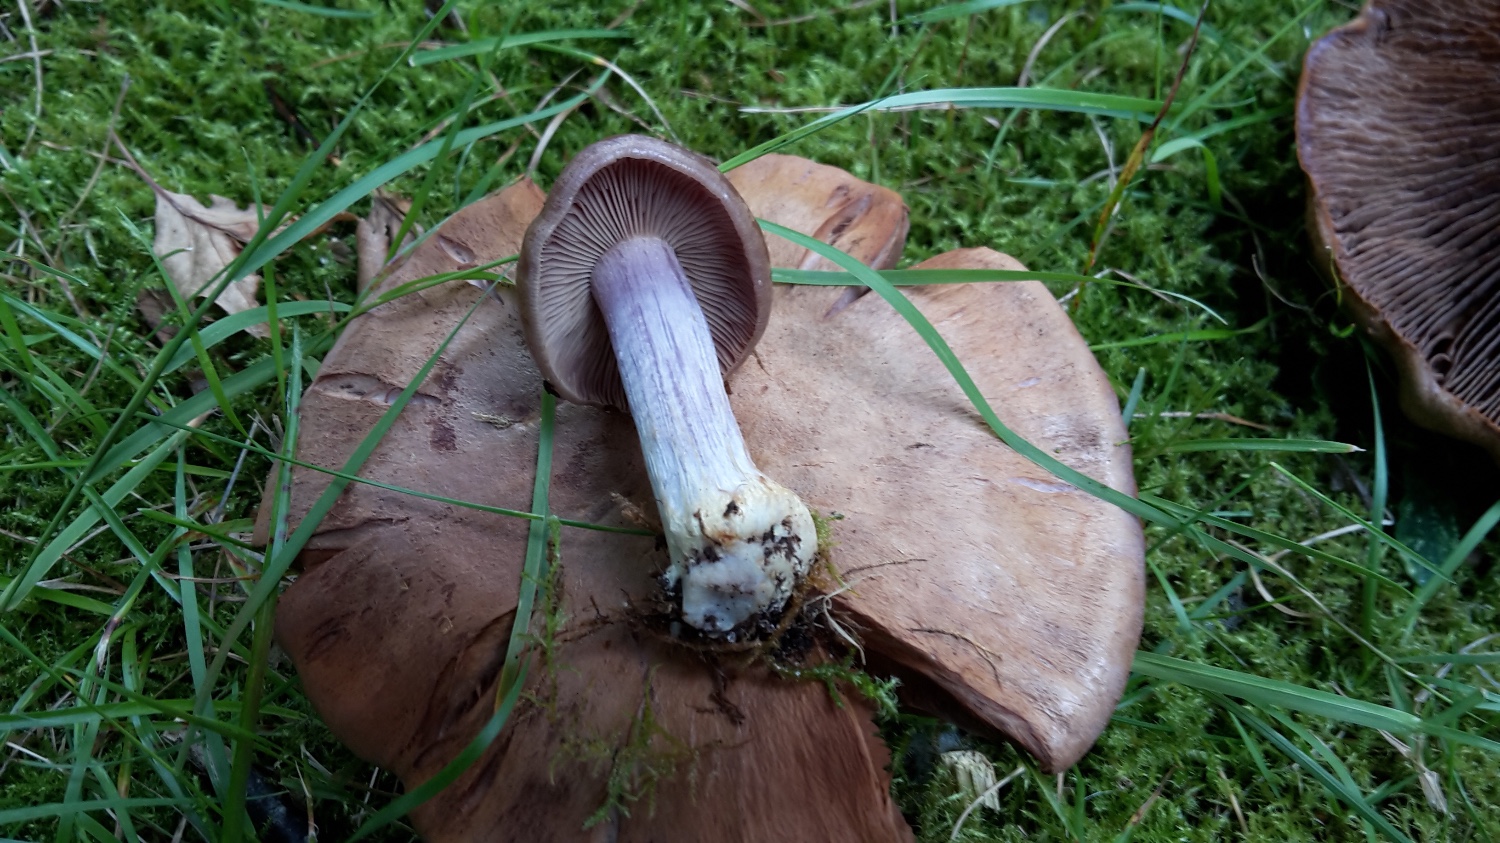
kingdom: Fungi
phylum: Basidiomycota
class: Agaricomycetes
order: Agaricales
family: Cortinariaceae
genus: Thaxterogaster
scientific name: Thaxterogaster herpeticus
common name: grønrandet slørhat
